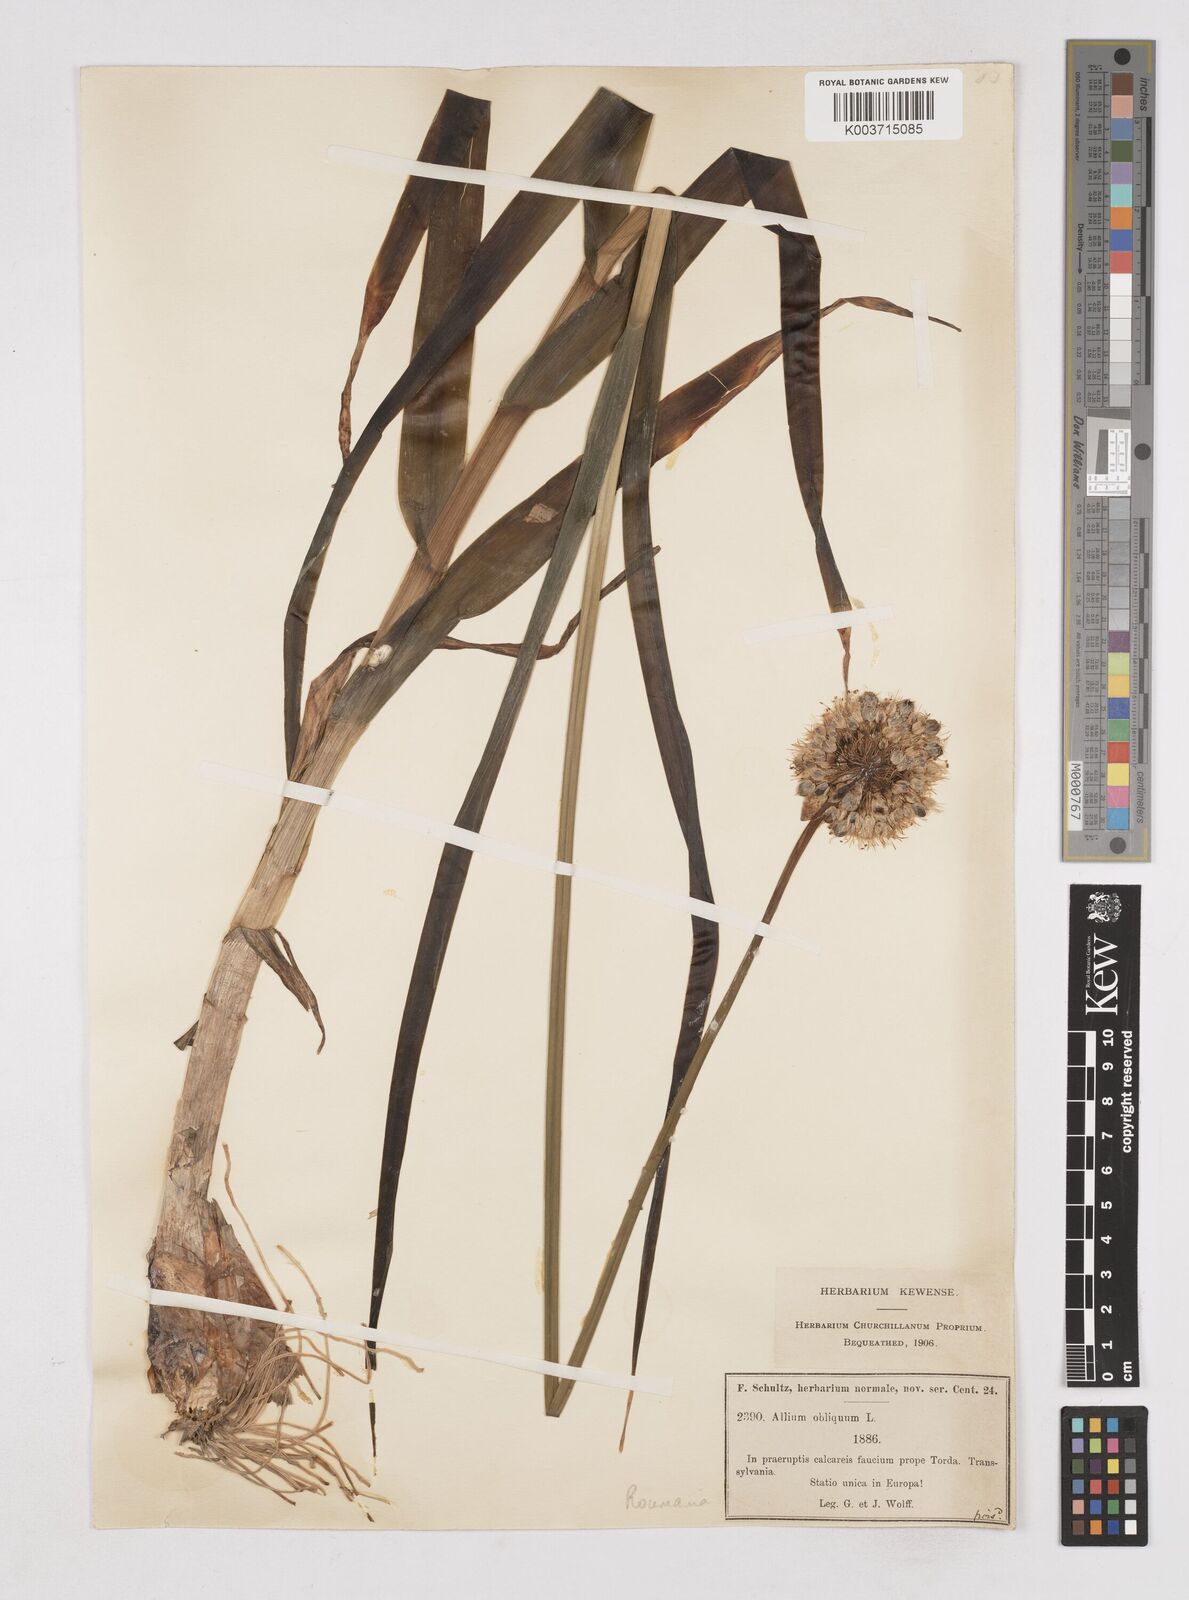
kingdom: Plantae
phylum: Tracheophyta
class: Liliopsida
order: Asparagales
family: Amaryllidaceae
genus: Allium
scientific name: Allium obliquum
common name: Oblique onion
